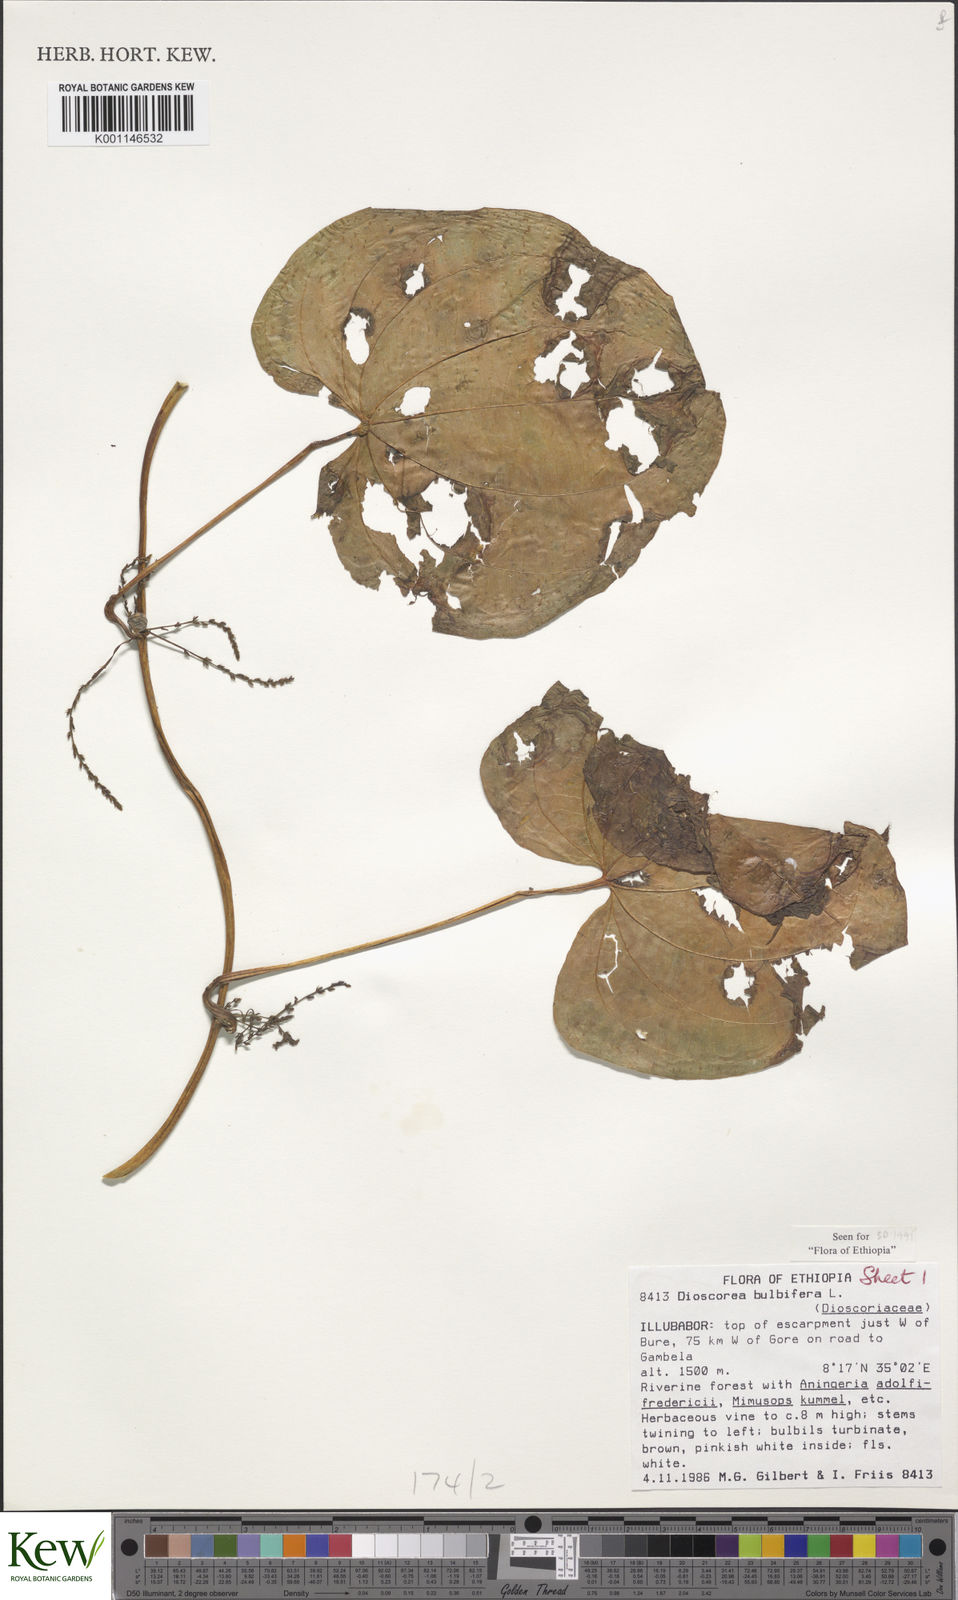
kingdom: Plantae
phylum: Tracheophyta
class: Liliopsida
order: Dioscoreales
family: Dioscoreaceae
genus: Dioscorea
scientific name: Dioscorea bulbifera
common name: Air yam
